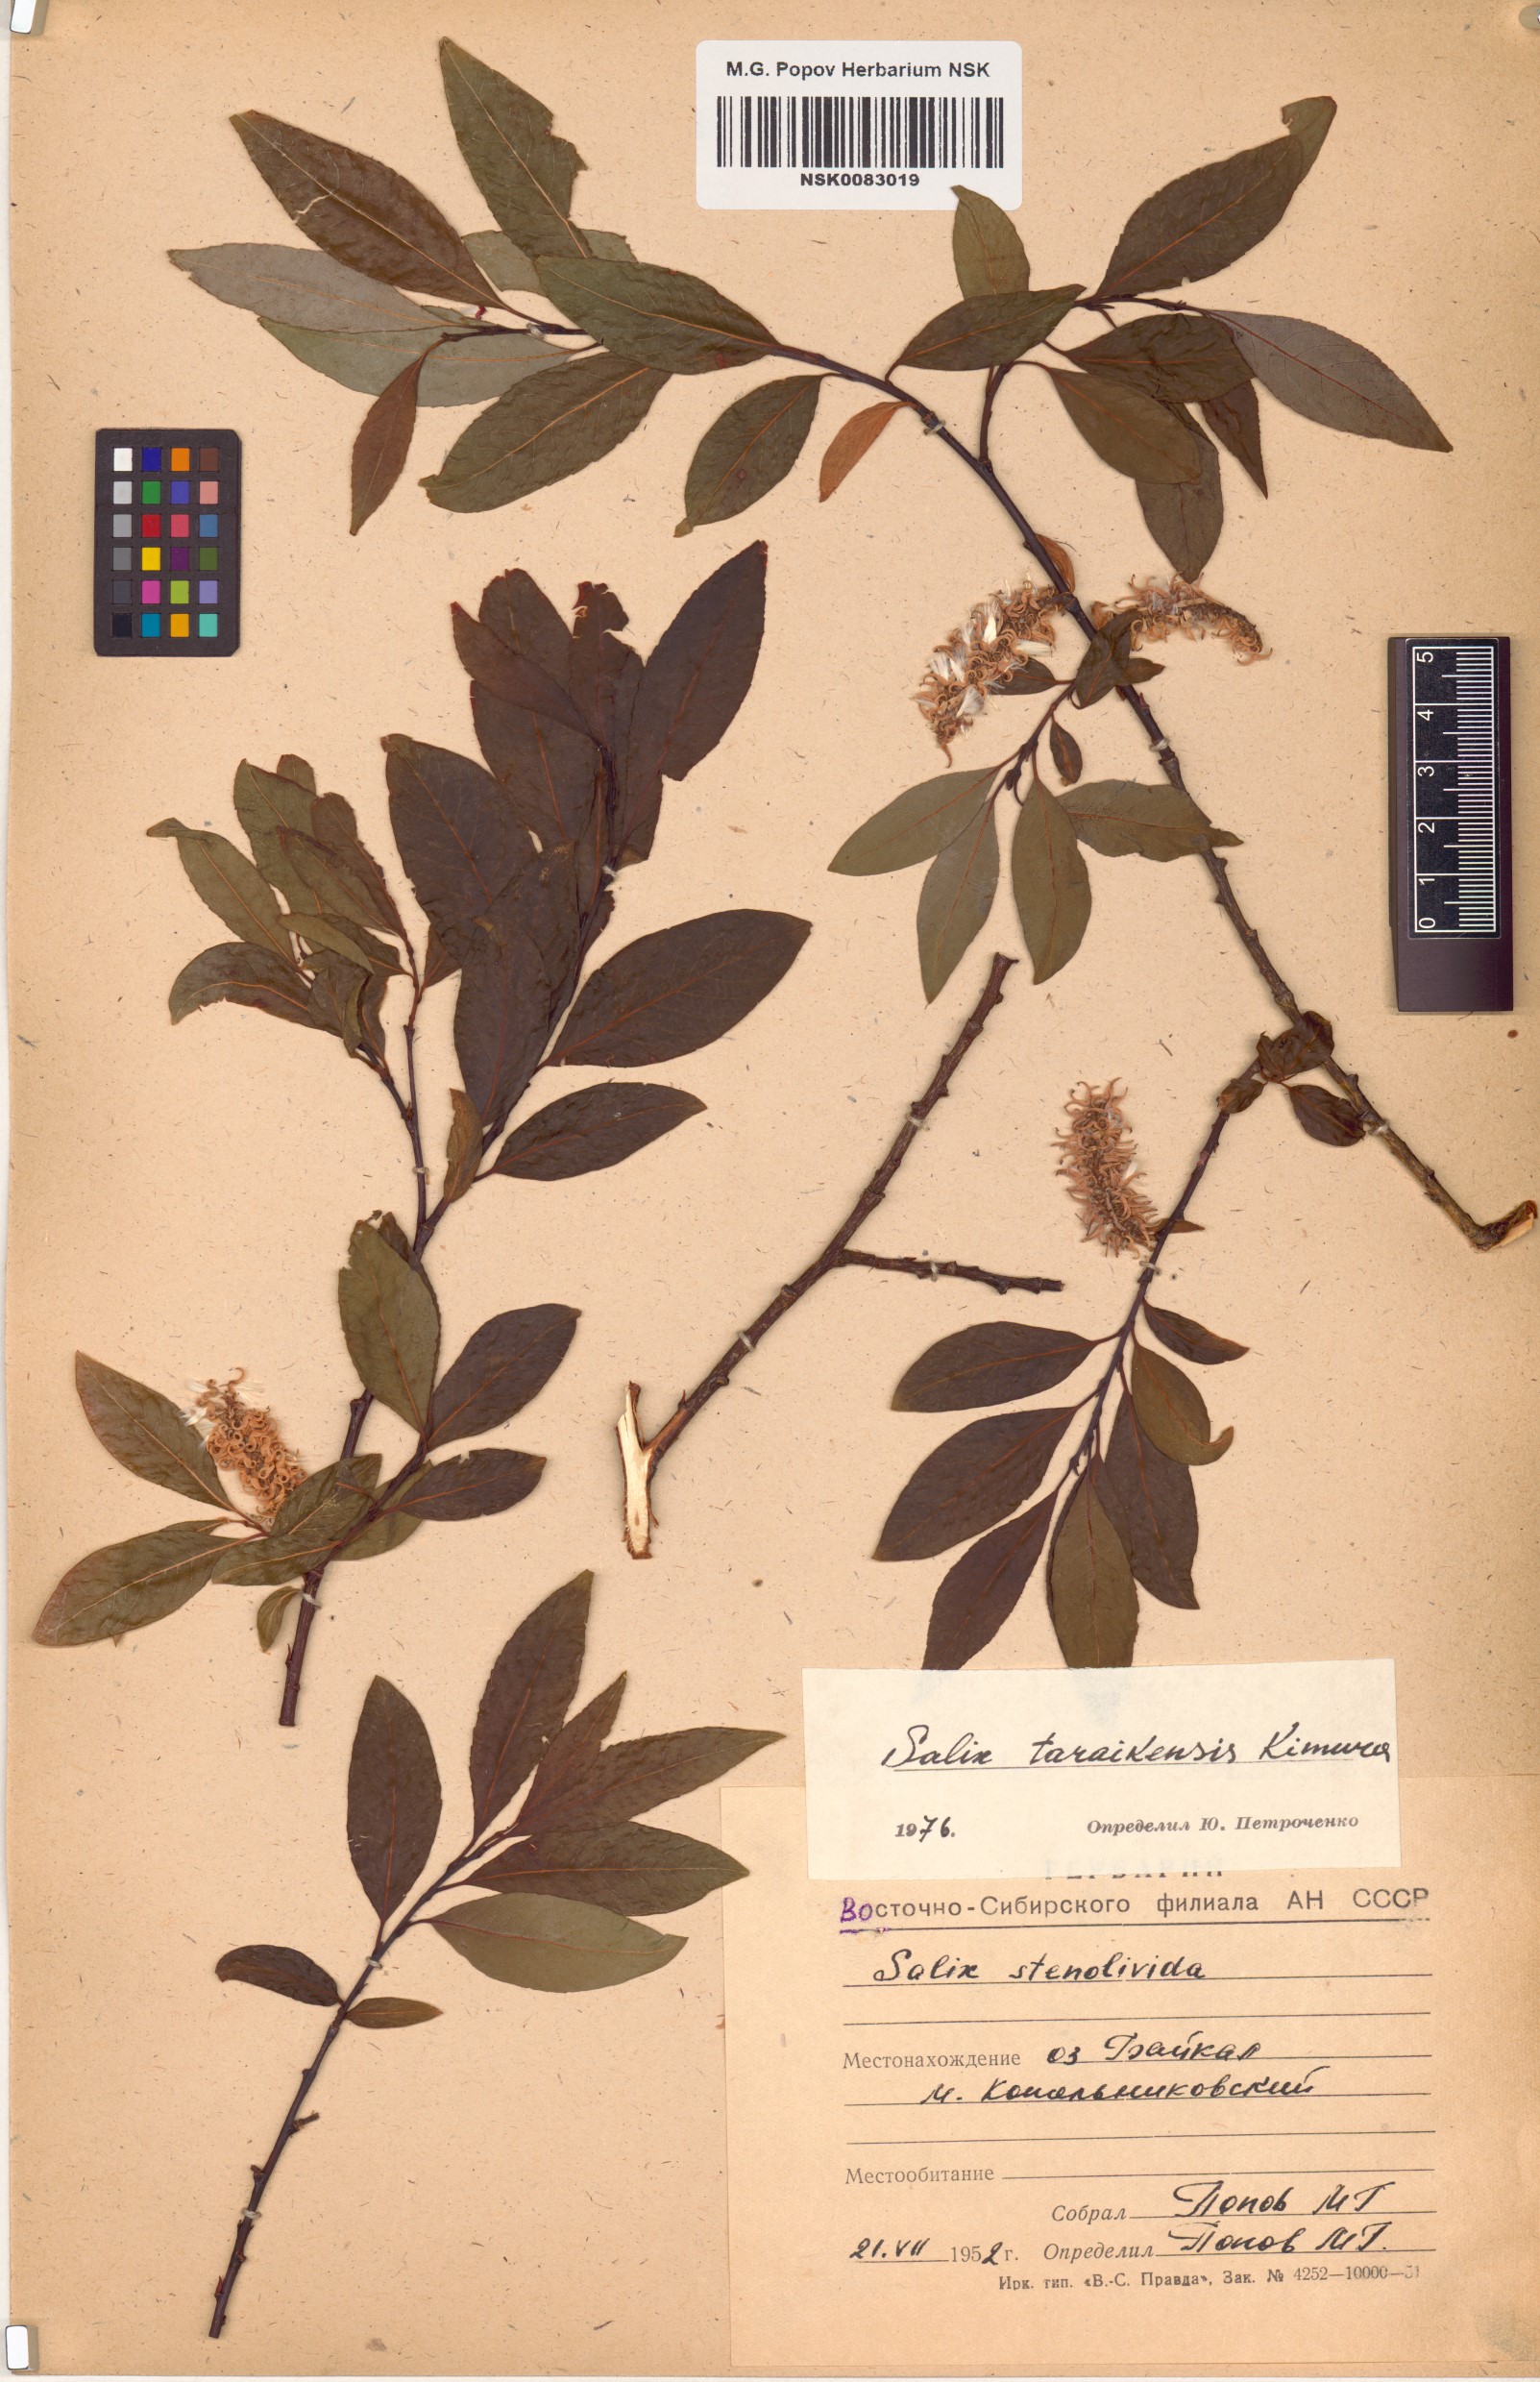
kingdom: Plantae
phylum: Tracheophyta
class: Magnoliopsida
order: Malpighiales
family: Salicaceae
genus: Salix
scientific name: Salix taraikensis
